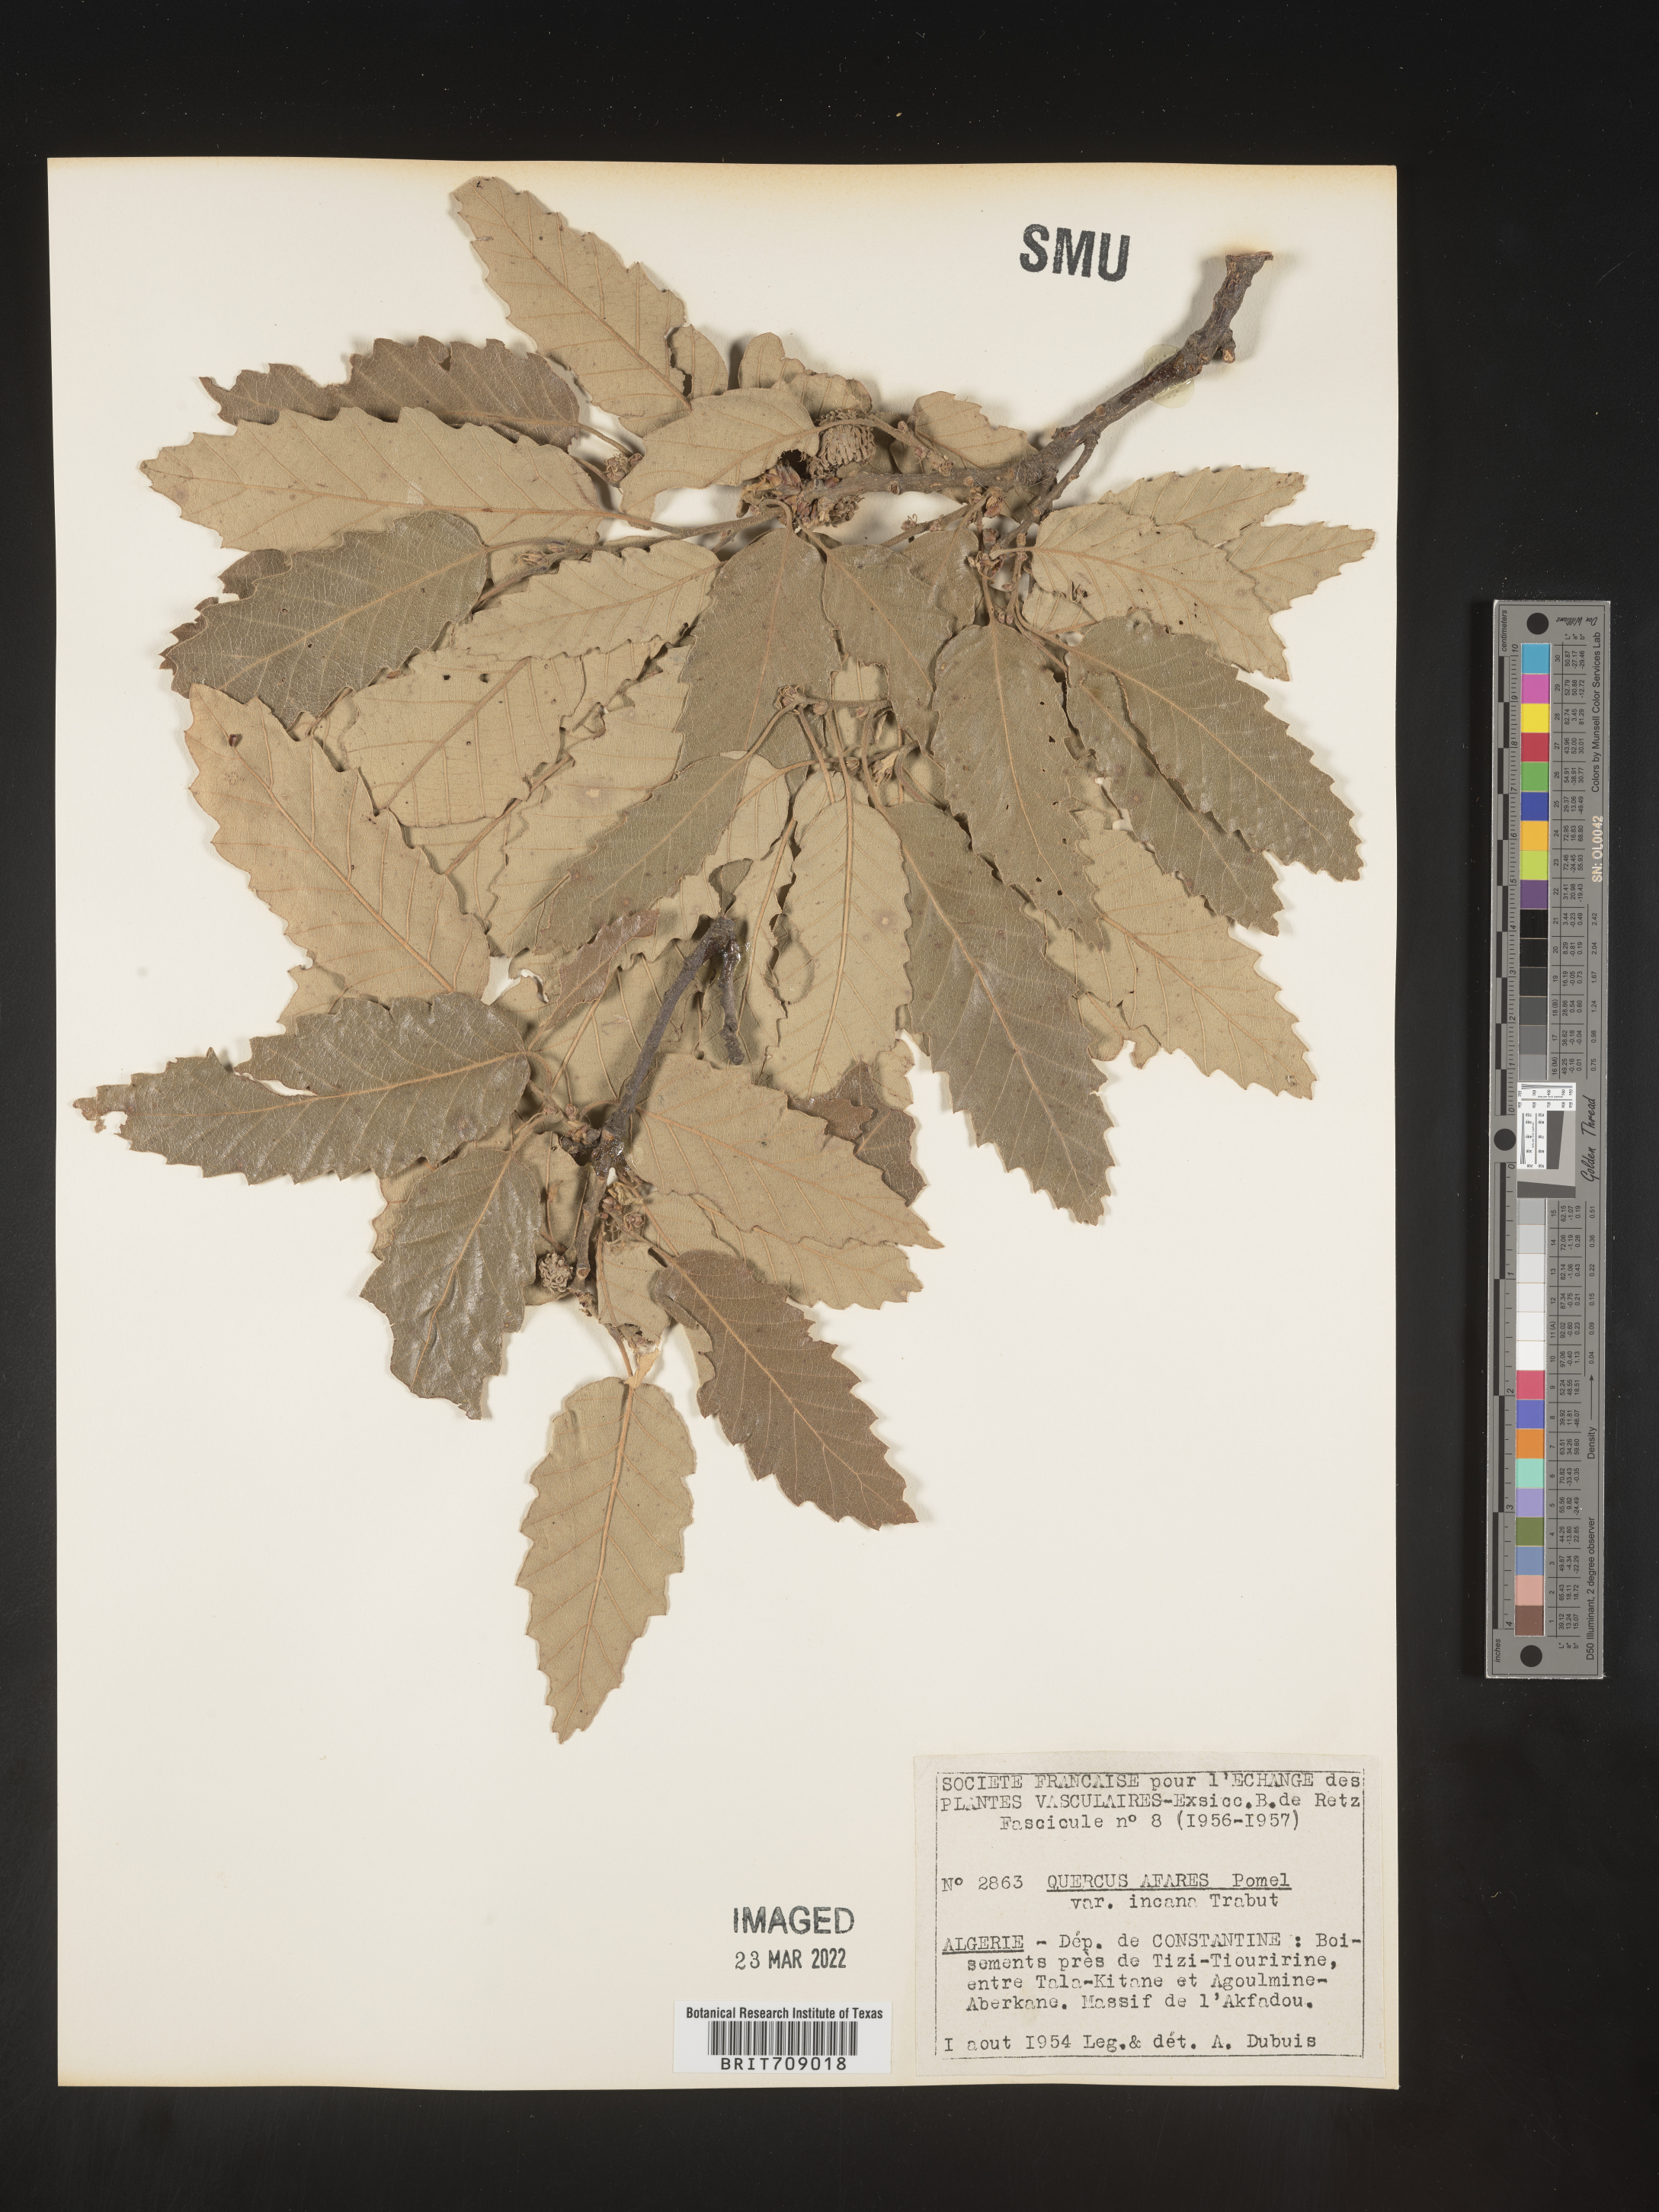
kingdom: Plantae
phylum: Tracheophyta
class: Magnoliopsida
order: Fagales
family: Fagaceae
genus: Quercus
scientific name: Quercus
